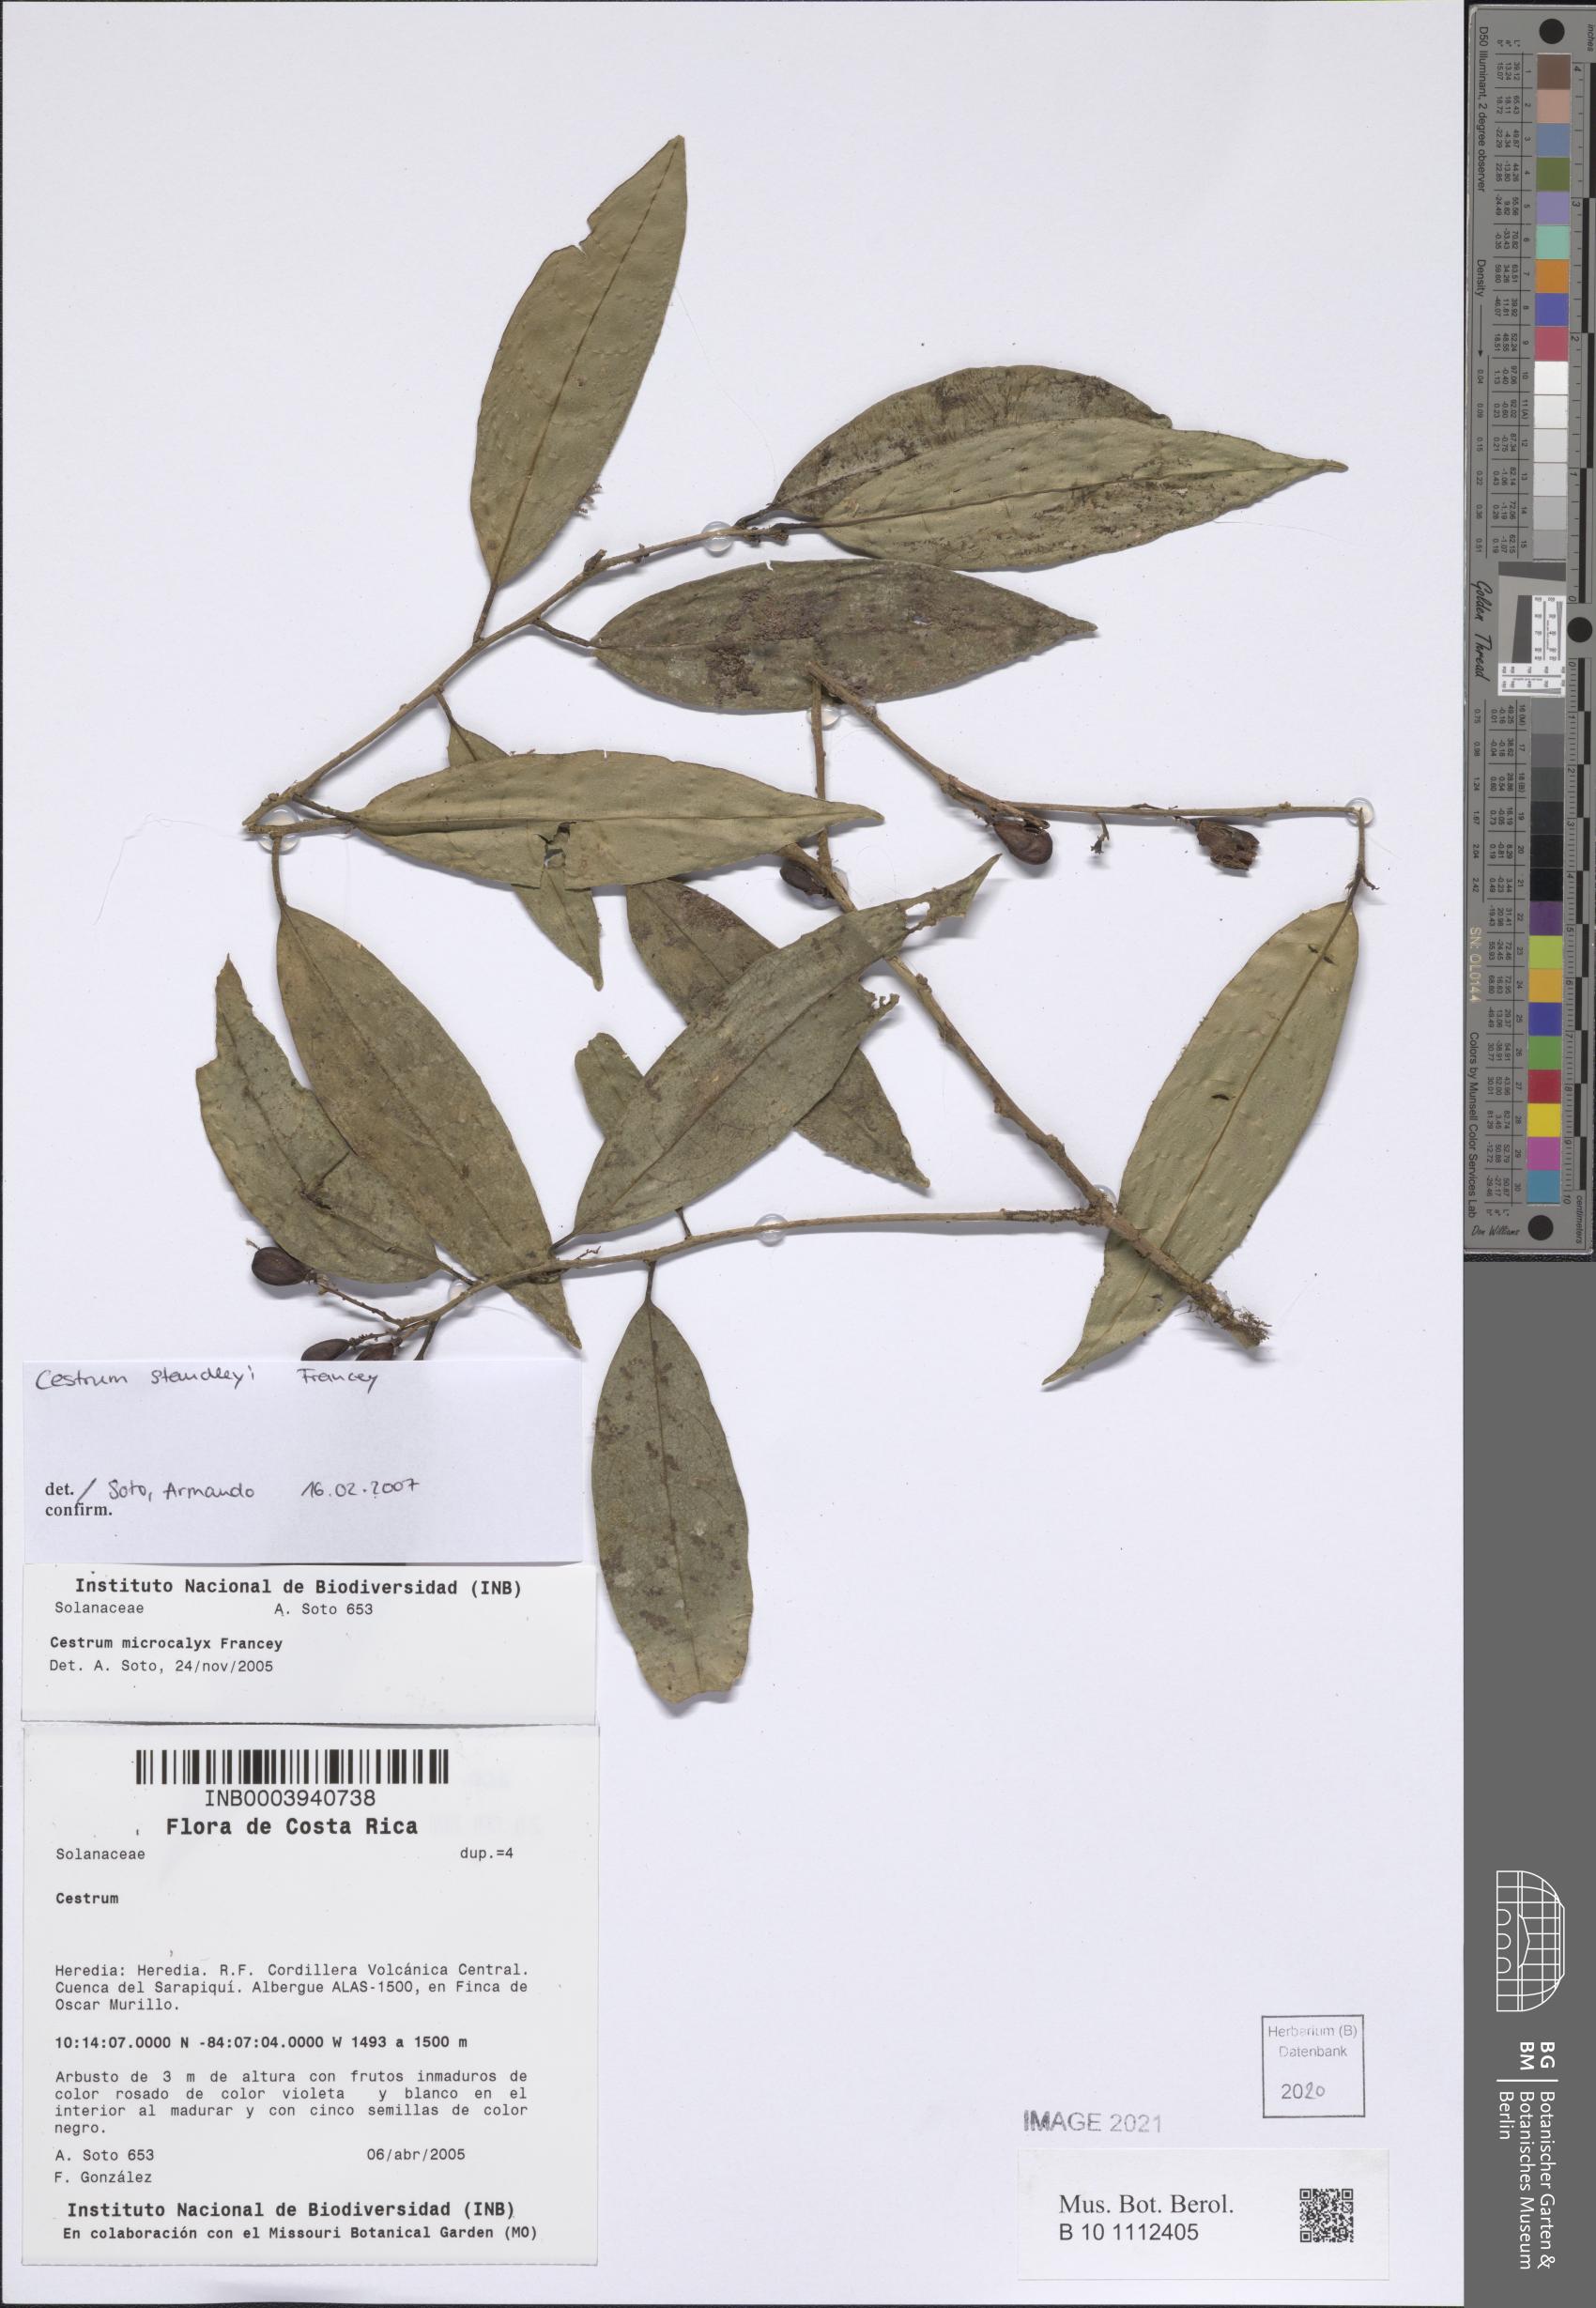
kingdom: Plantae
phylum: Tracheophyta
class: Magnoliopsida
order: Solanales
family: Solanaceae
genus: Cestrum
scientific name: Cestrum
